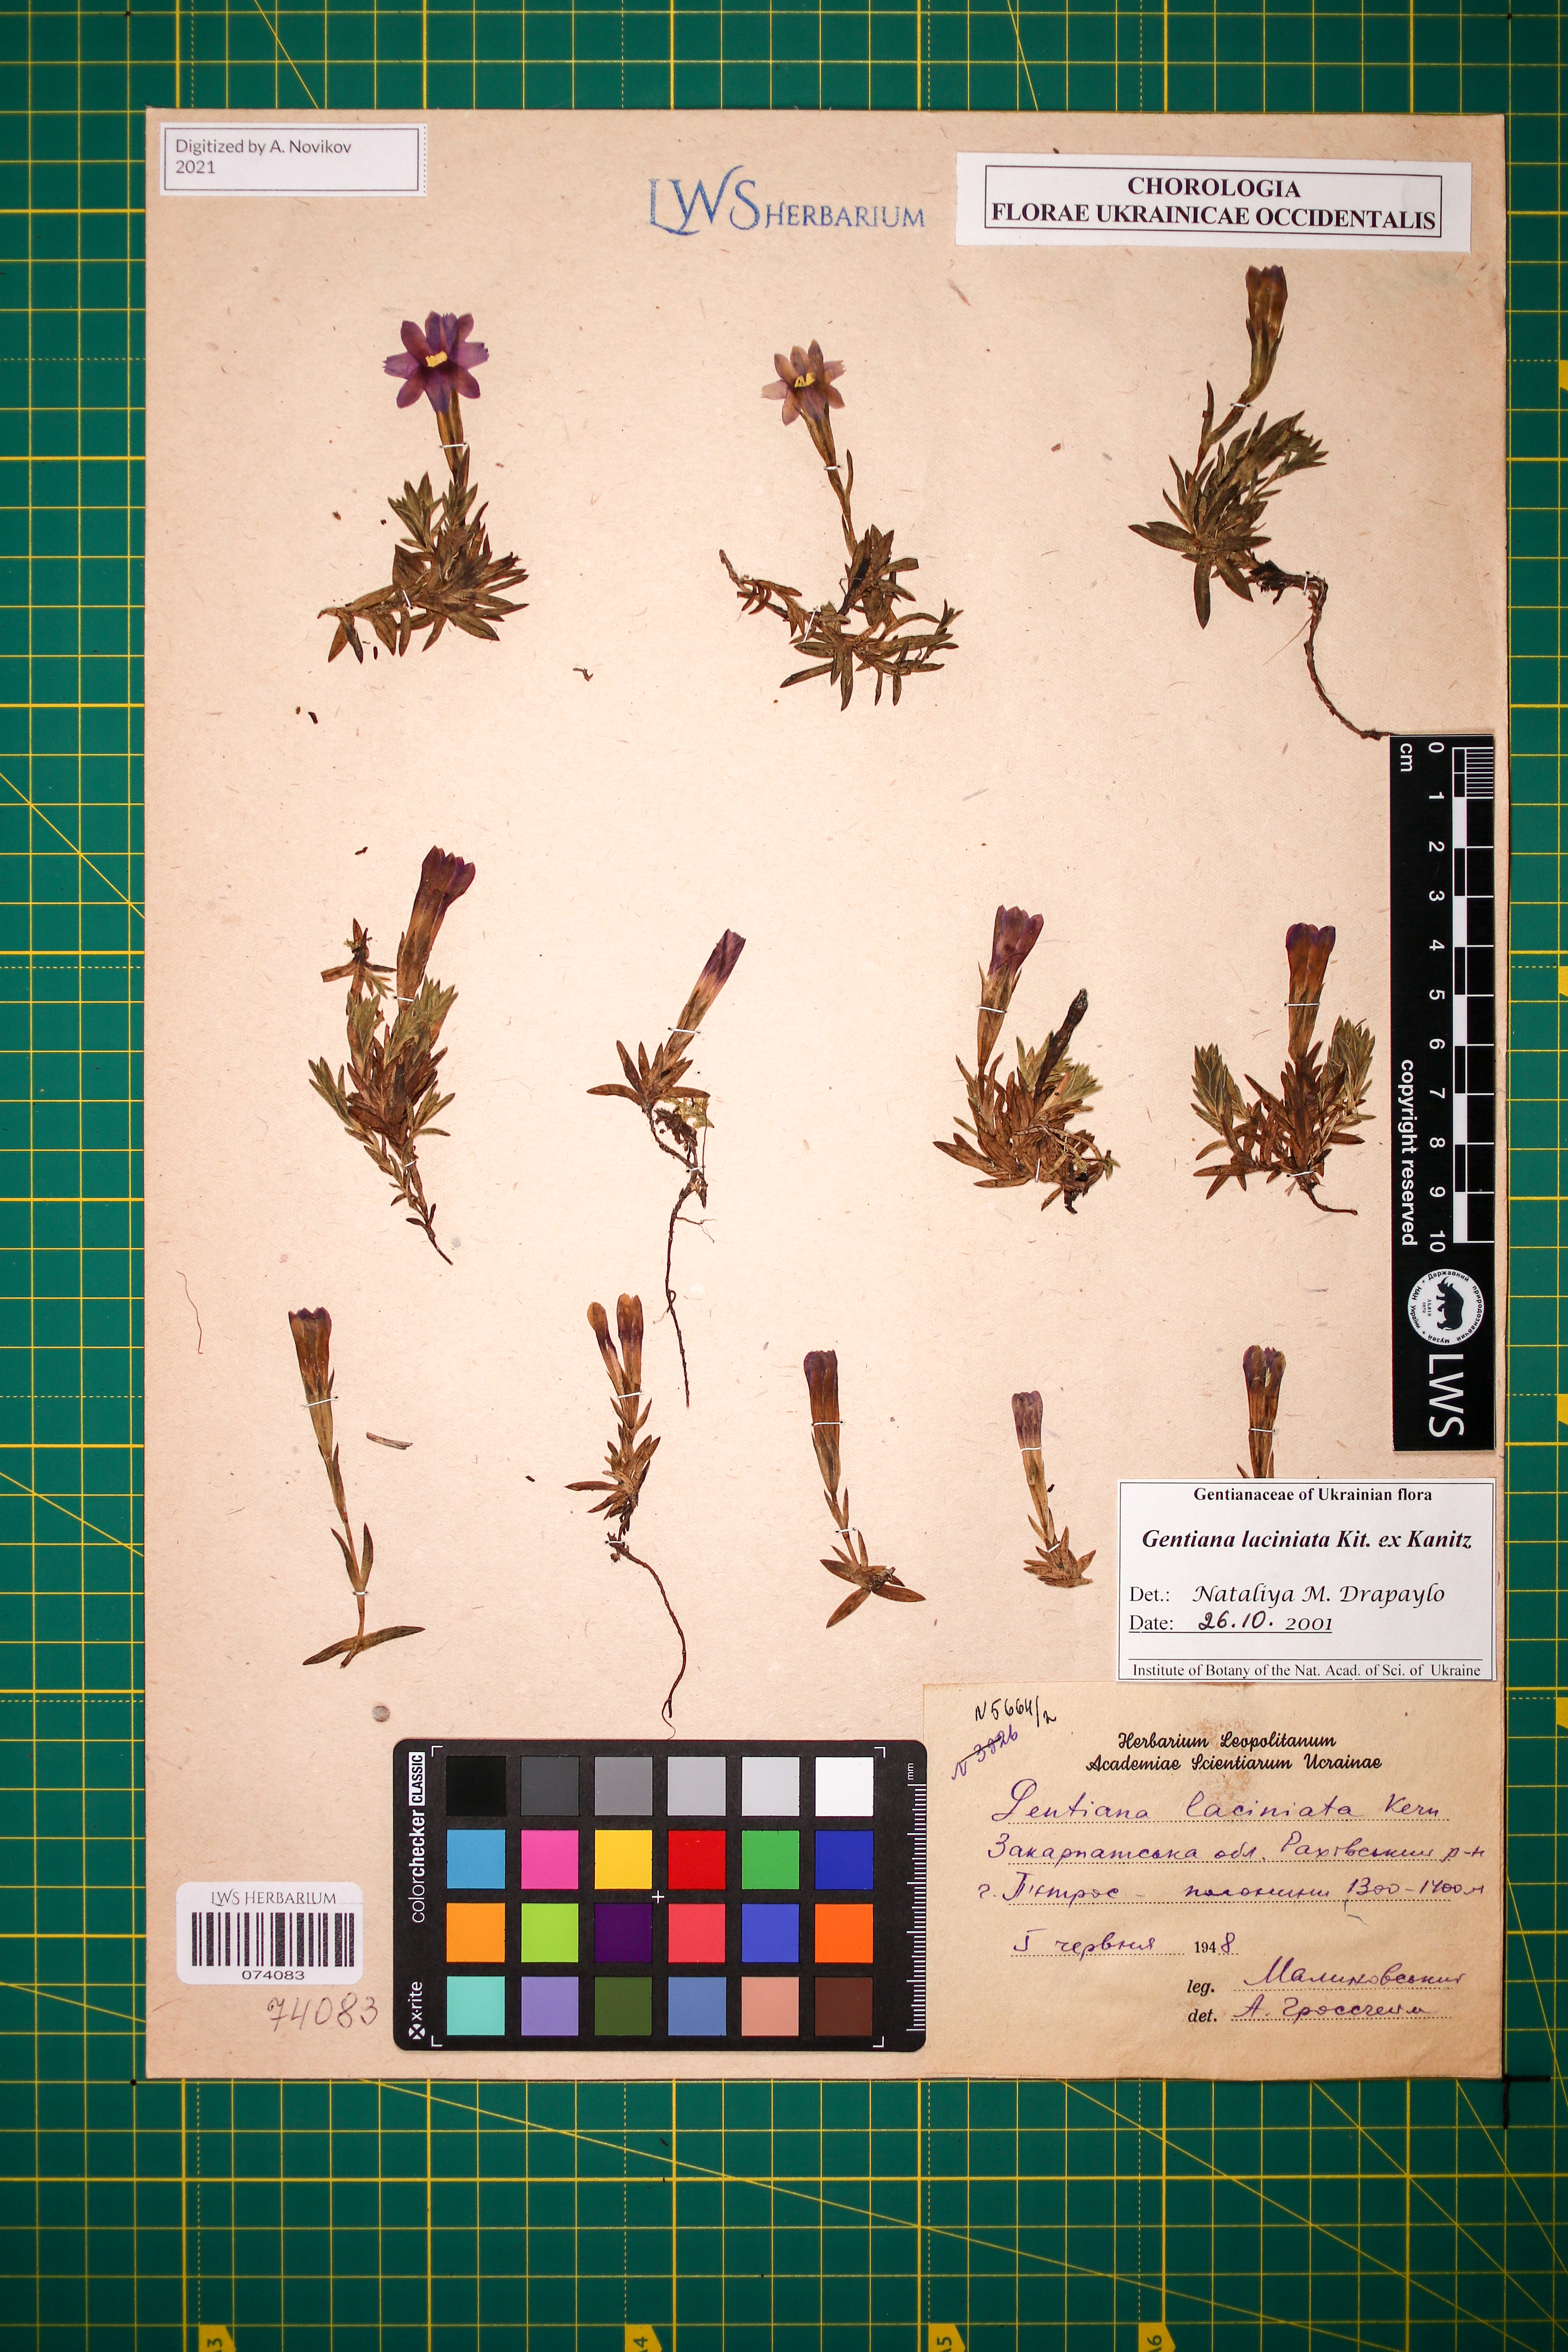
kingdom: Plantae
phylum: Tracheophyta
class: Magnoliopsida
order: Gentianales
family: Gentianaceae
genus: Gentiana
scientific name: Gentiana laciniata
